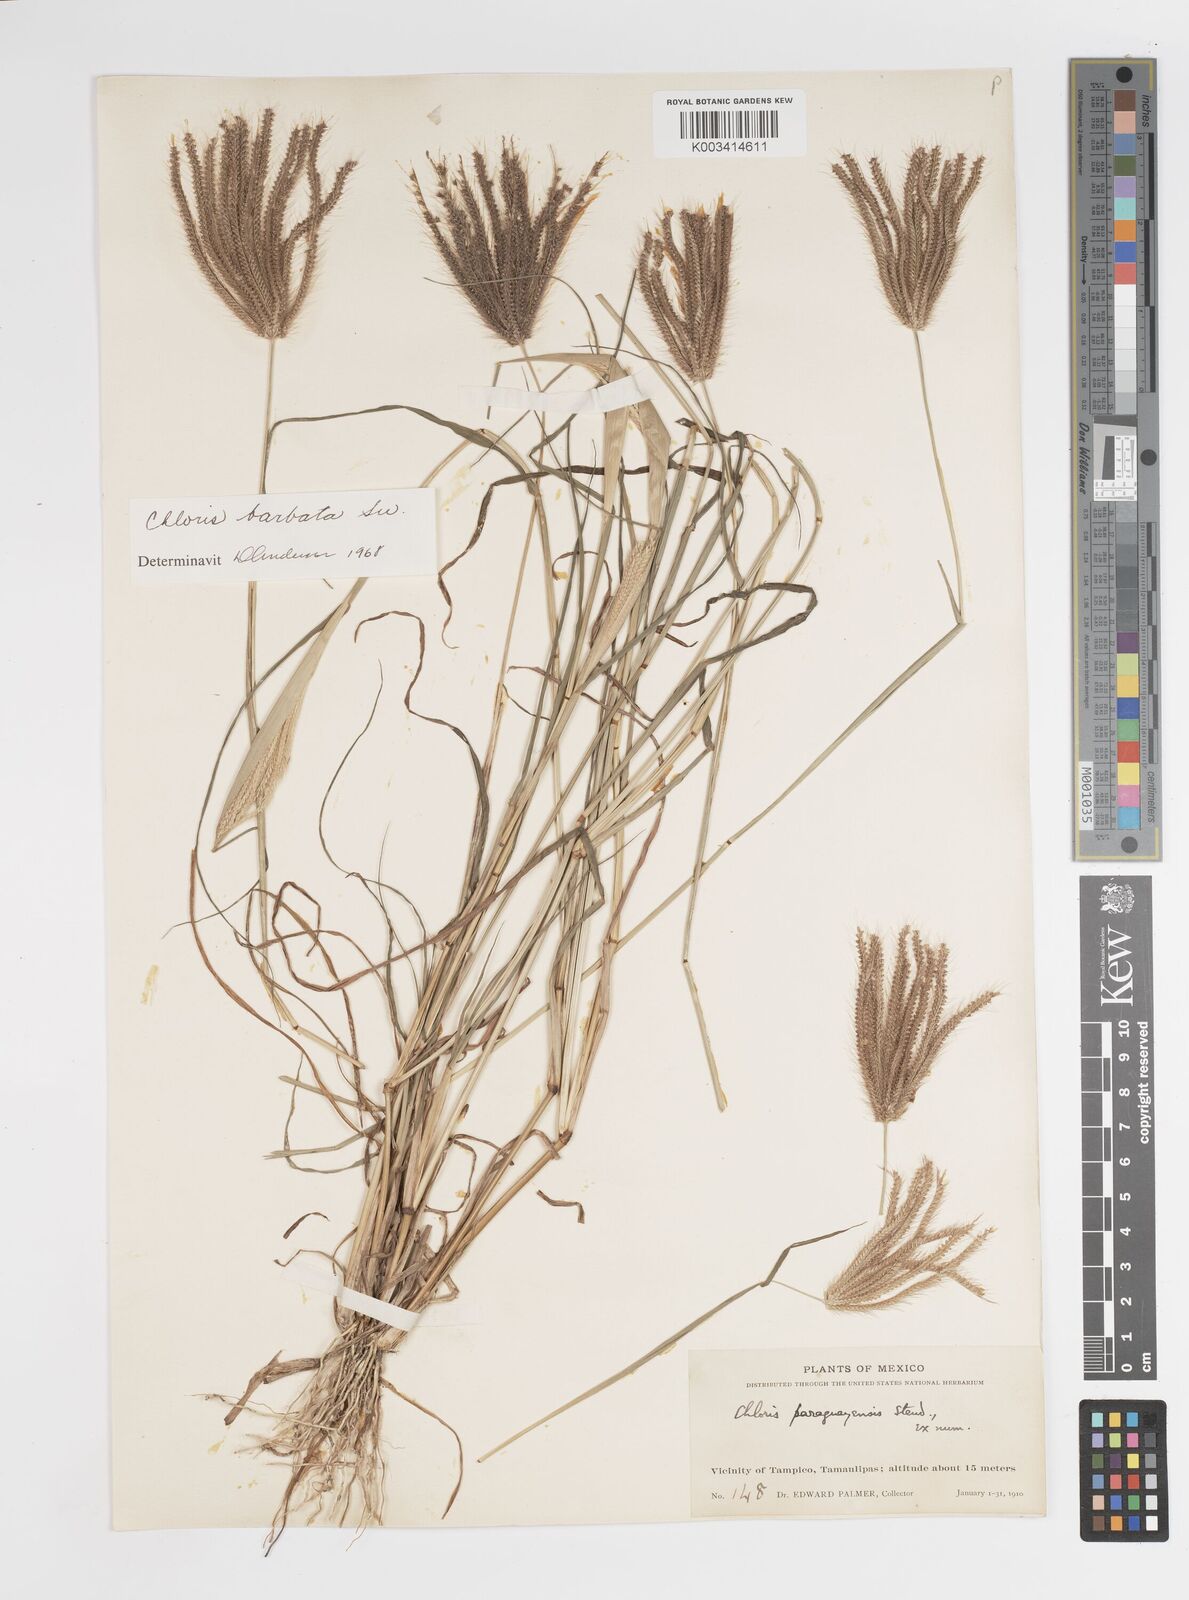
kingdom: Plantae
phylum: Tracheophyta
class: Liliopsida
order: Poales
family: Poaceae
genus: Stapfochloa
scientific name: Stapfochloa elata
